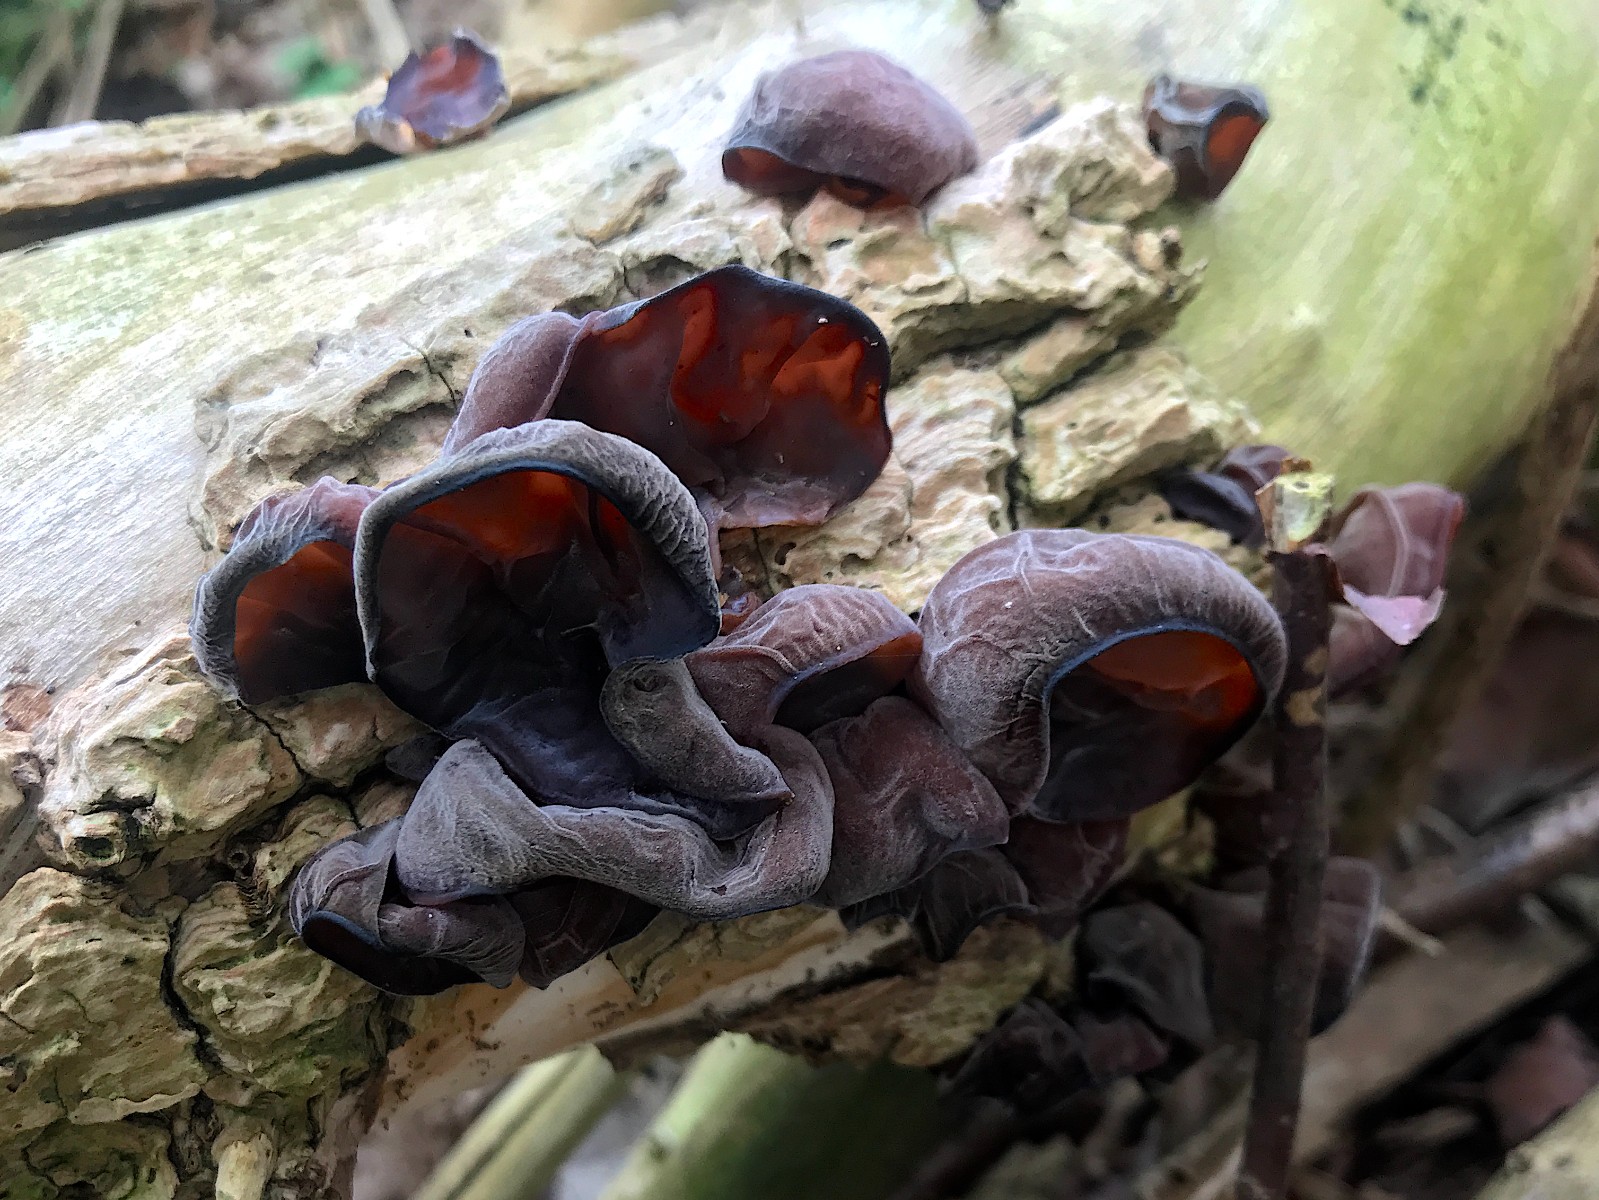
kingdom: Fungi
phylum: Basidiomycota
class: Agaricomycetes
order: Auriculariales
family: Auriculariaceae
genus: Auricularia
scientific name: Auricularia auricula-judae
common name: almindelig judasøre
